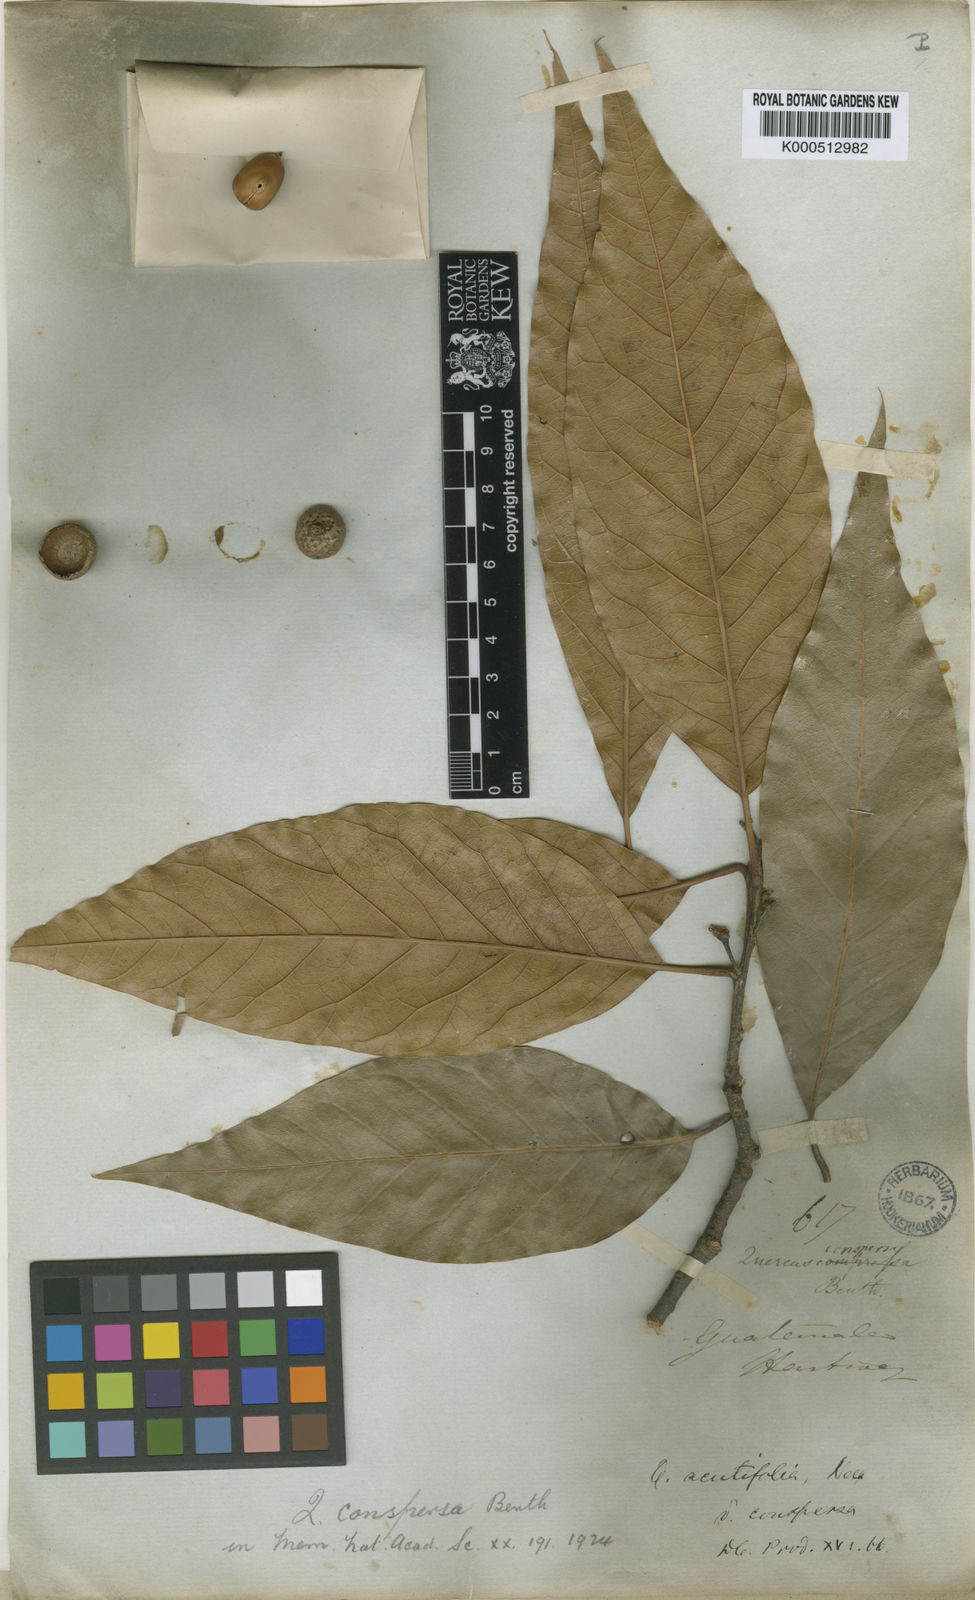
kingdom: Plantae
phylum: Tracheophyta
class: Magnoliopsida
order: Fagales
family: Fagaceae
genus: Quercus
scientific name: Quercus acutifolia
